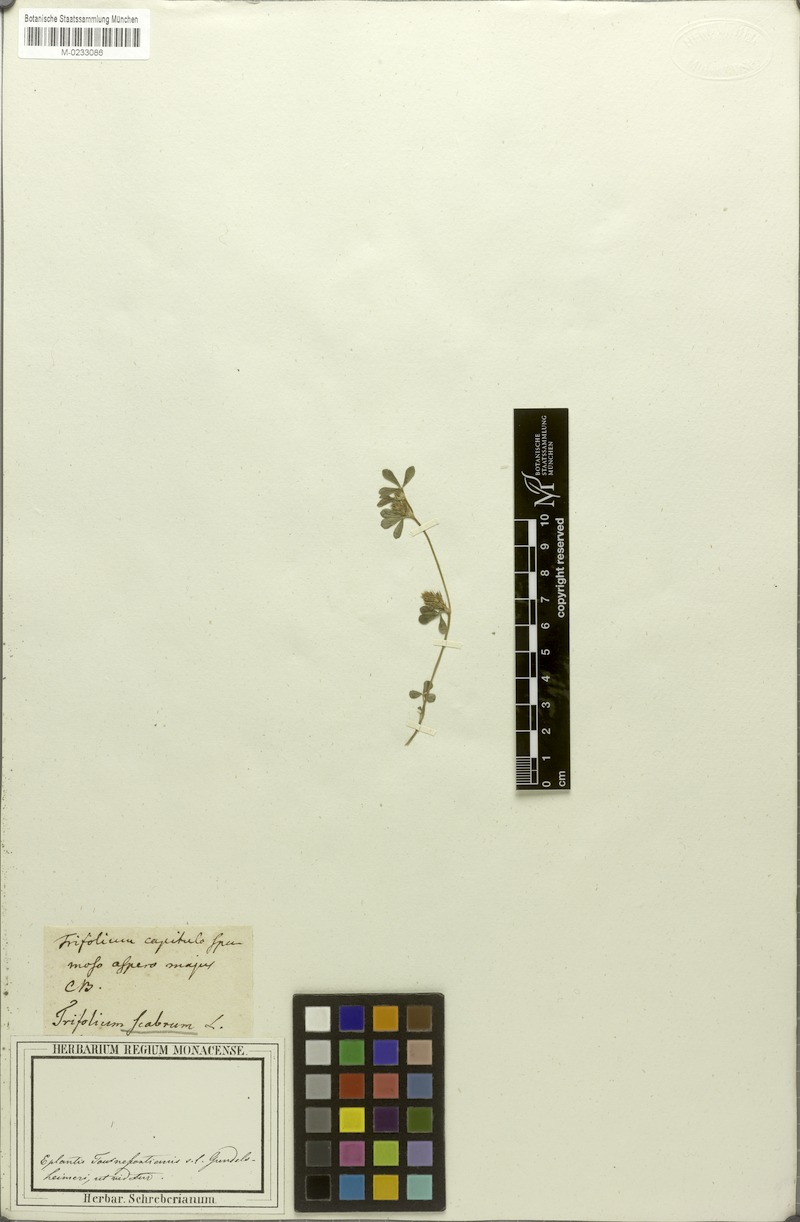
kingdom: Plantae
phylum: Tracheophyta
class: Magnoliopsida
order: Fabales
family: Fabaceae
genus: Trifolium
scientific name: Trifolium scabrum
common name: Rough clover
